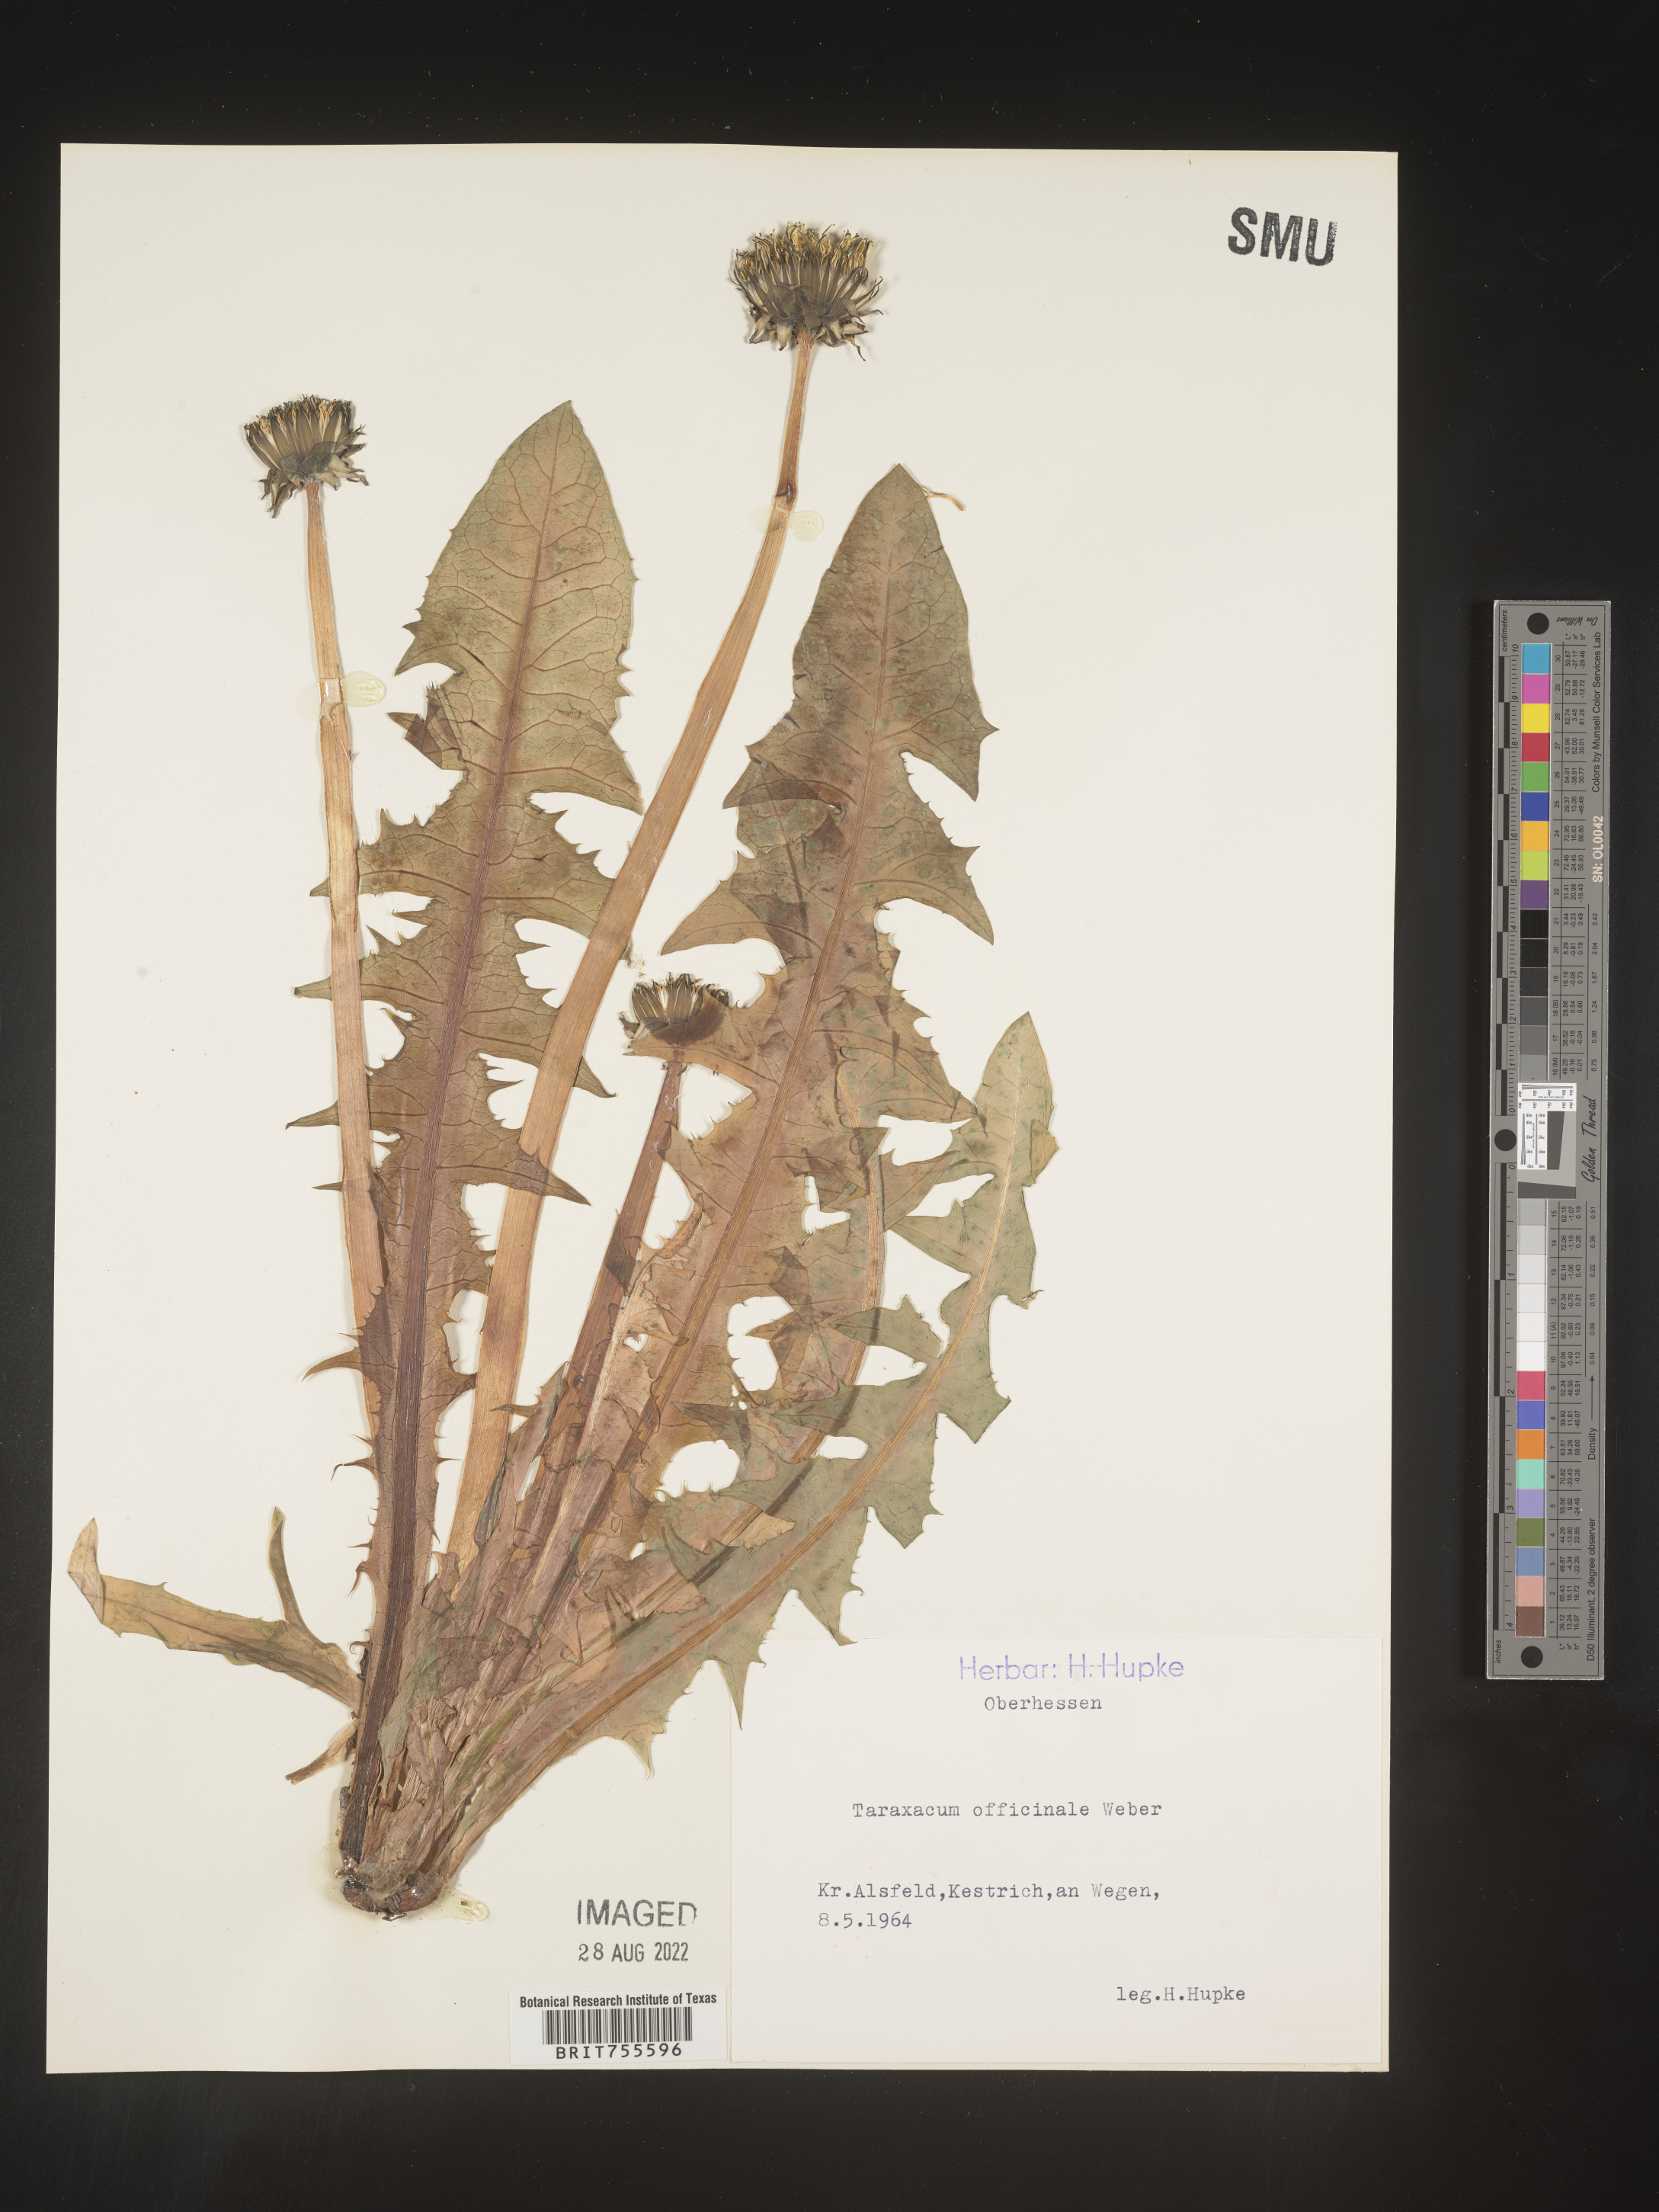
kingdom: Plantae
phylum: Tracheophyta
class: Magnoliopsida
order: Asterales
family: Asteraceae
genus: Taraxacum
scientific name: Taraxacum
